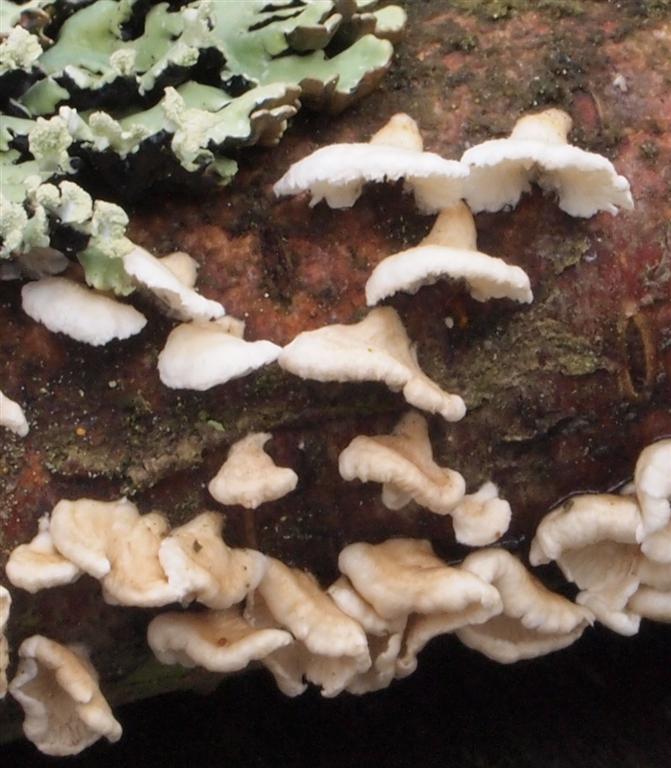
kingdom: Fungi
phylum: Basidiomycota
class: Agaricomycetes
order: Amylocorticiales
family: Amylocorticiaceae
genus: Plicaturopsis
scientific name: Plicaturopsis crispa
